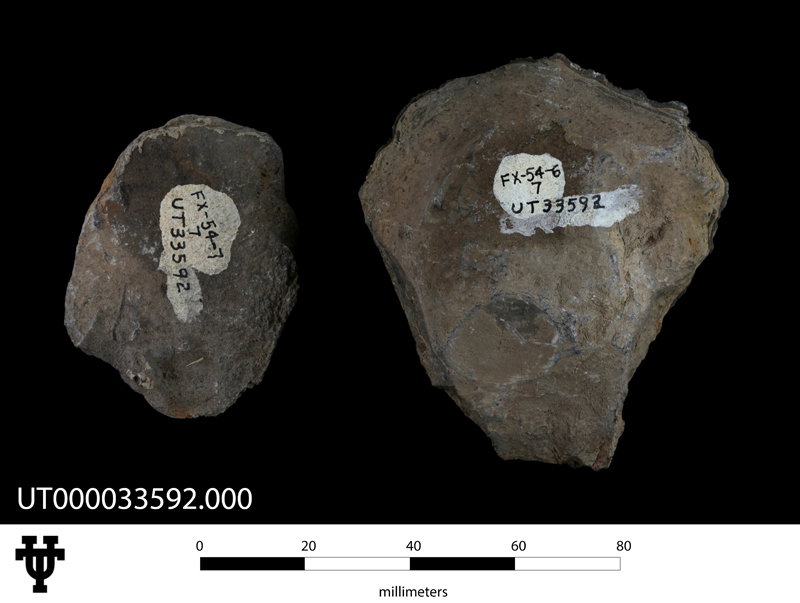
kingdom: Animalia
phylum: Mollusca
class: Bivalvia
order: Pectinida
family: Pectinidae
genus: Volachlamys
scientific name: Volachlamys singaporina
